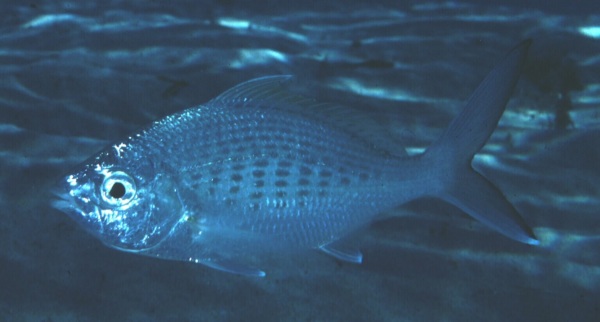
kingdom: Animalia
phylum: Chordata
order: Perciformes
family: Gerreidae
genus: Gerres
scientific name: Gerres oyena
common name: Common silver-biddy
